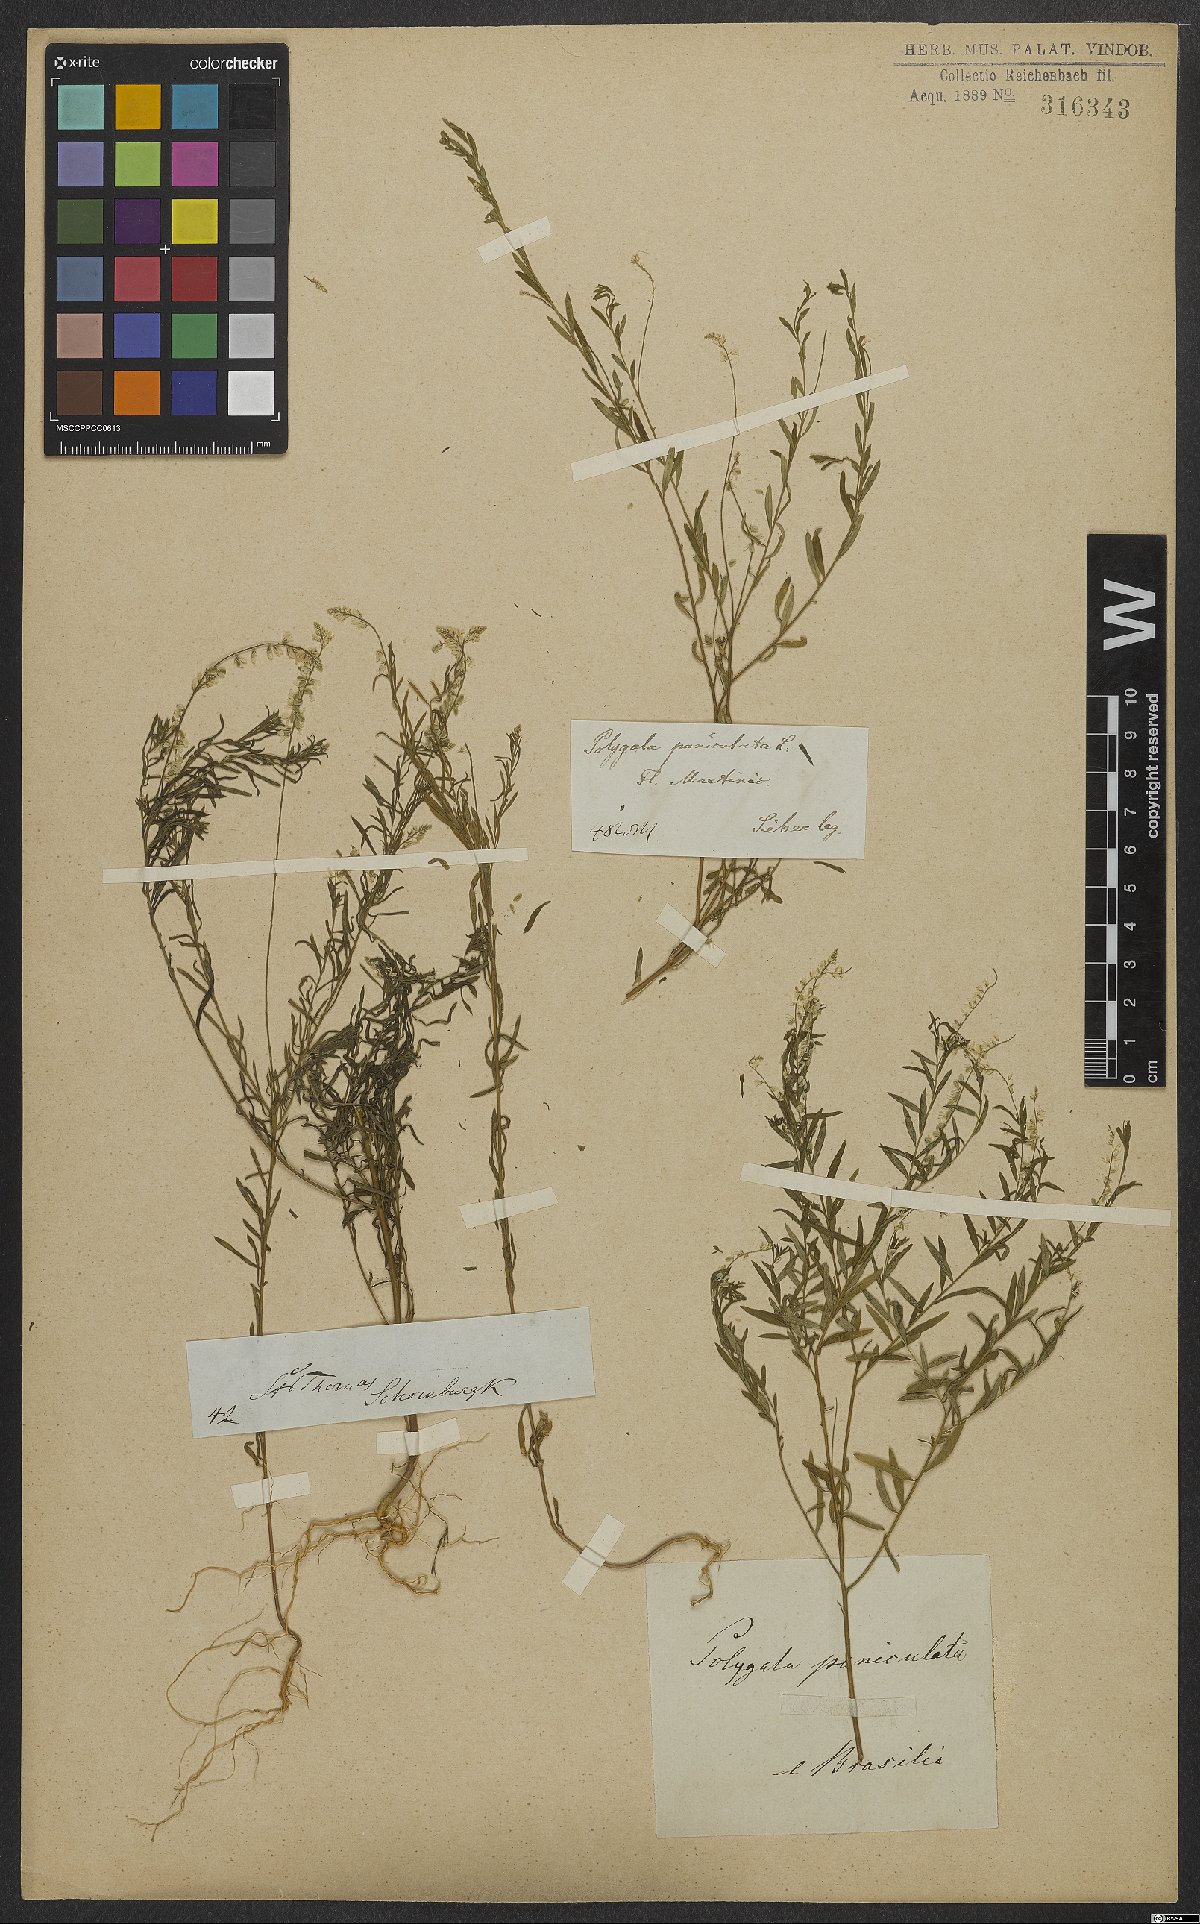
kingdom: Plantae
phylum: Tracheophyta
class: Magnoliopsida
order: Fabales
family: Polygalaceae
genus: Polygala
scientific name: Polygala exilis
